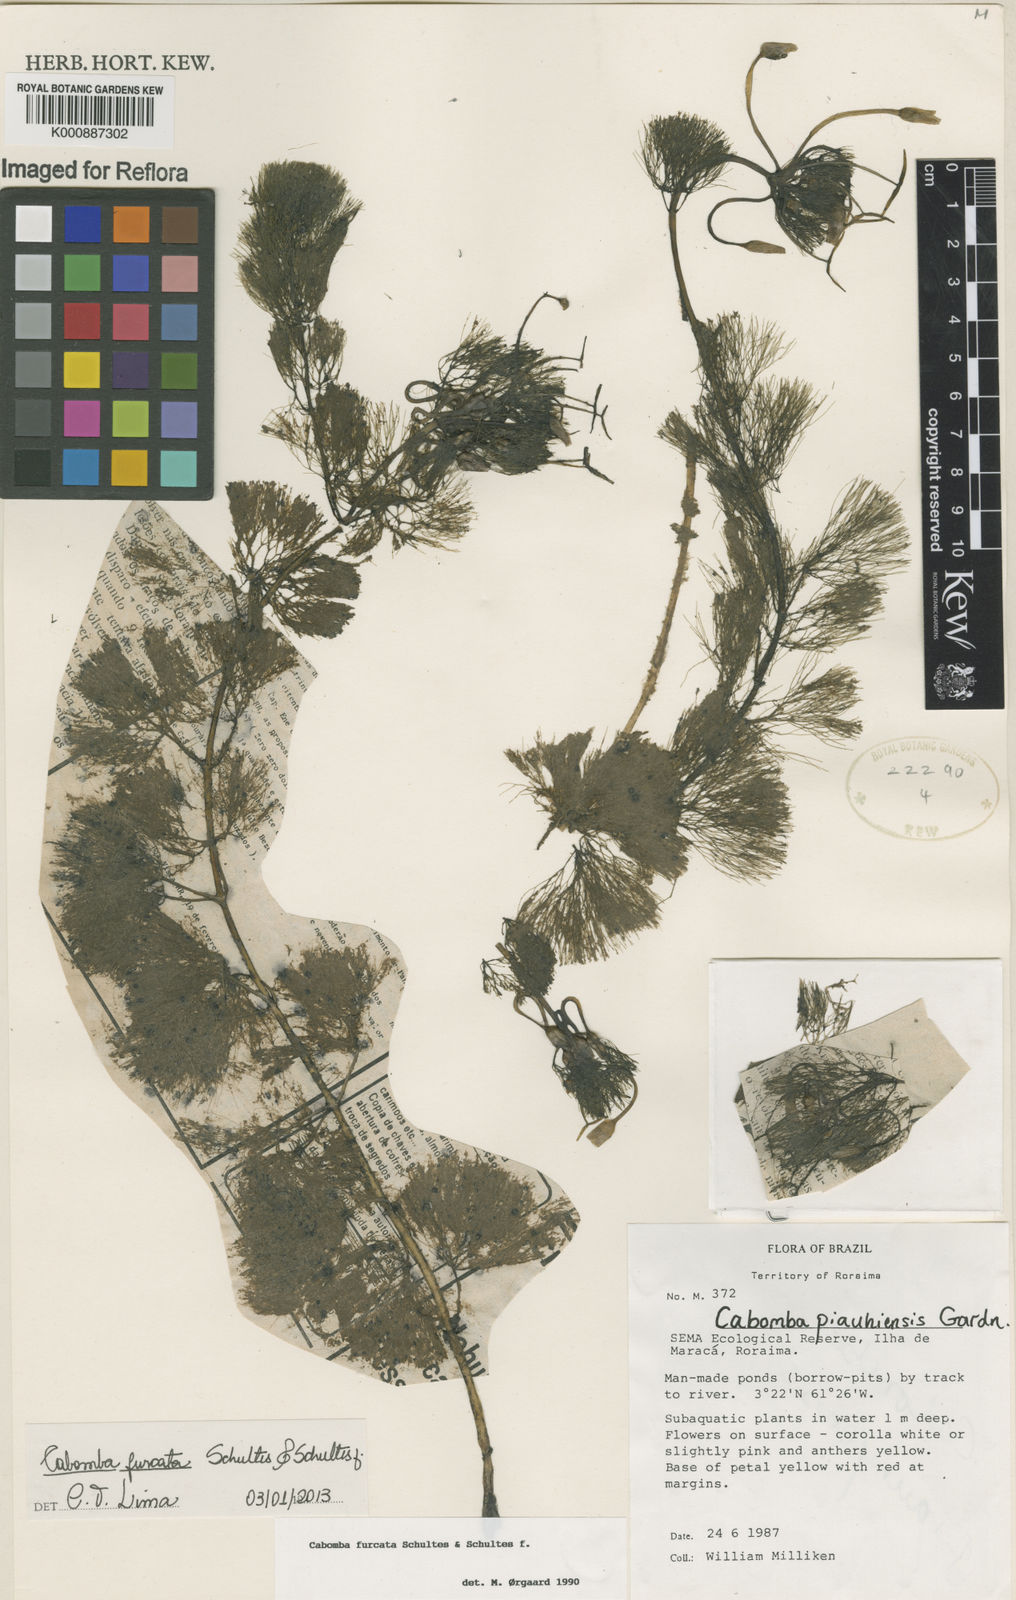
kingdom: Plantae
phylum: Tracheophyta
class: Magnoliopsida
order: Nymphaeales
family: Cabombaceae
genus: Cabomba
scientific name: Cabomba furcata
